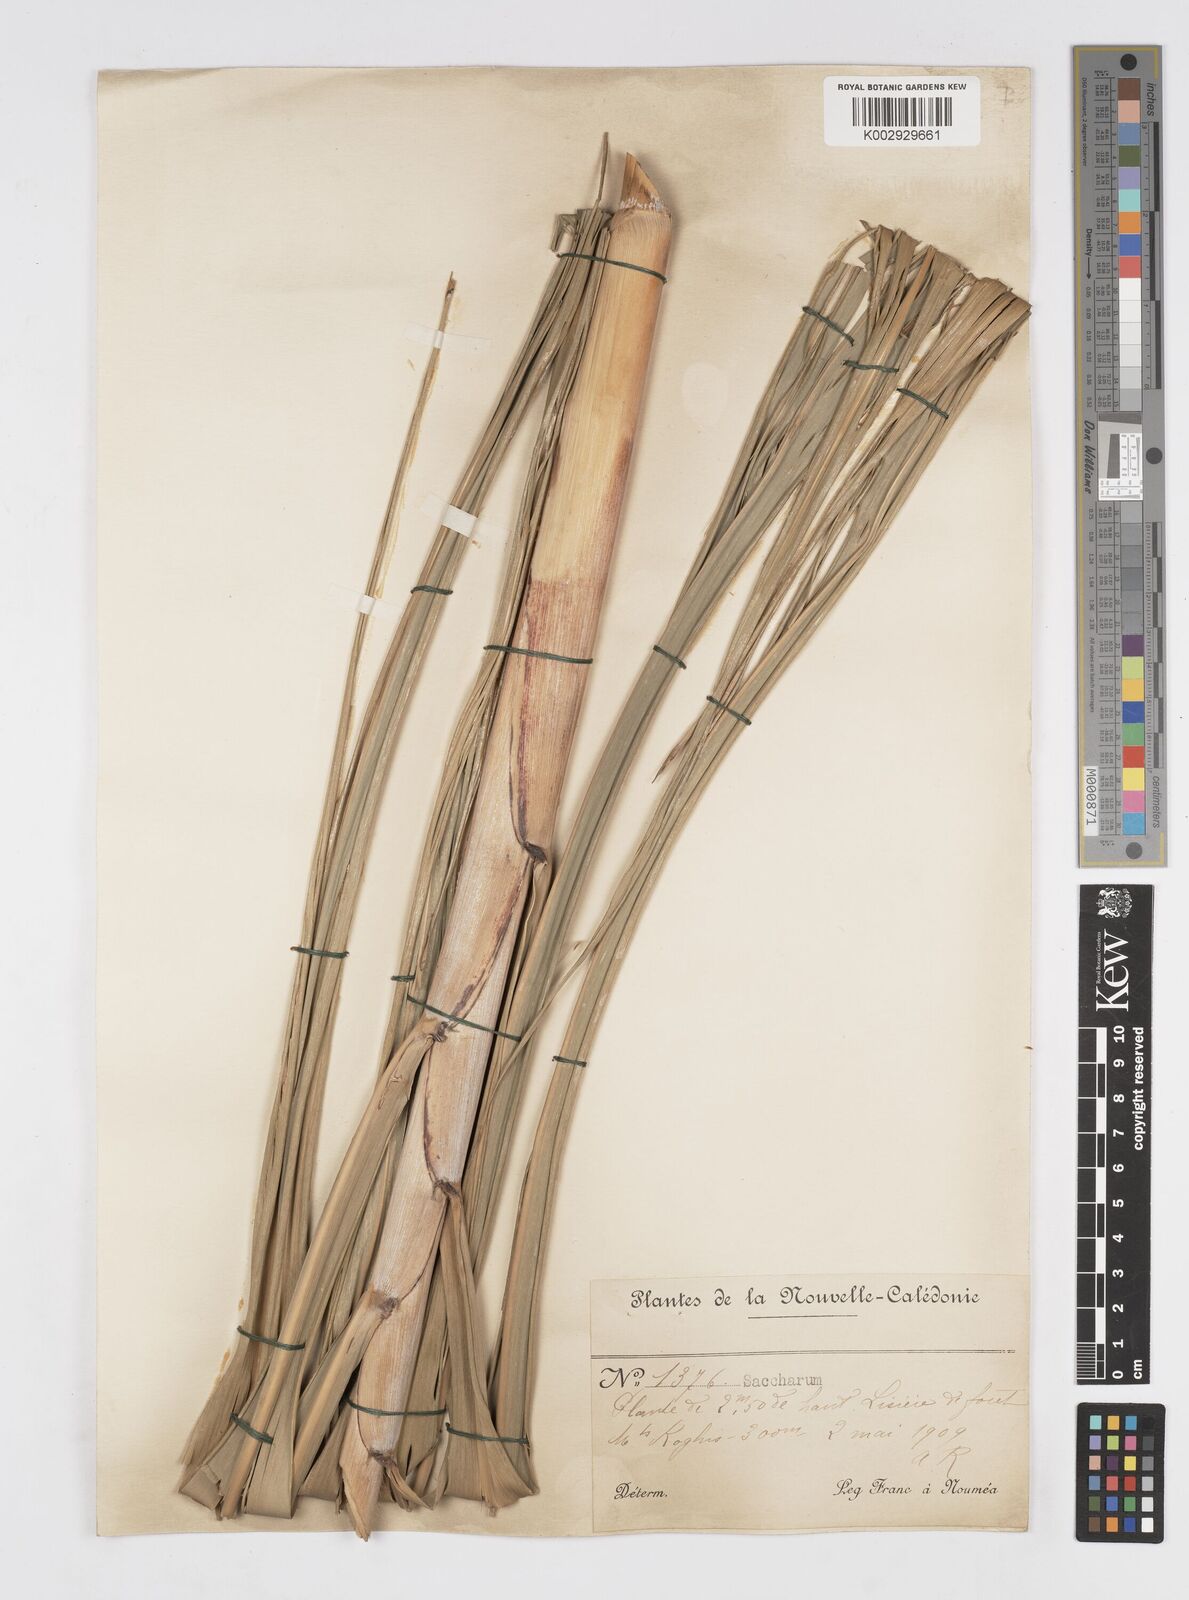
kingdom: Plantae
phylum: Tracheophyta
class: Liliopsida
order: Poales
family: Poaceae
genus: Saccharum
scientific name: Saccharum officinarum
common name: Sugarcane
